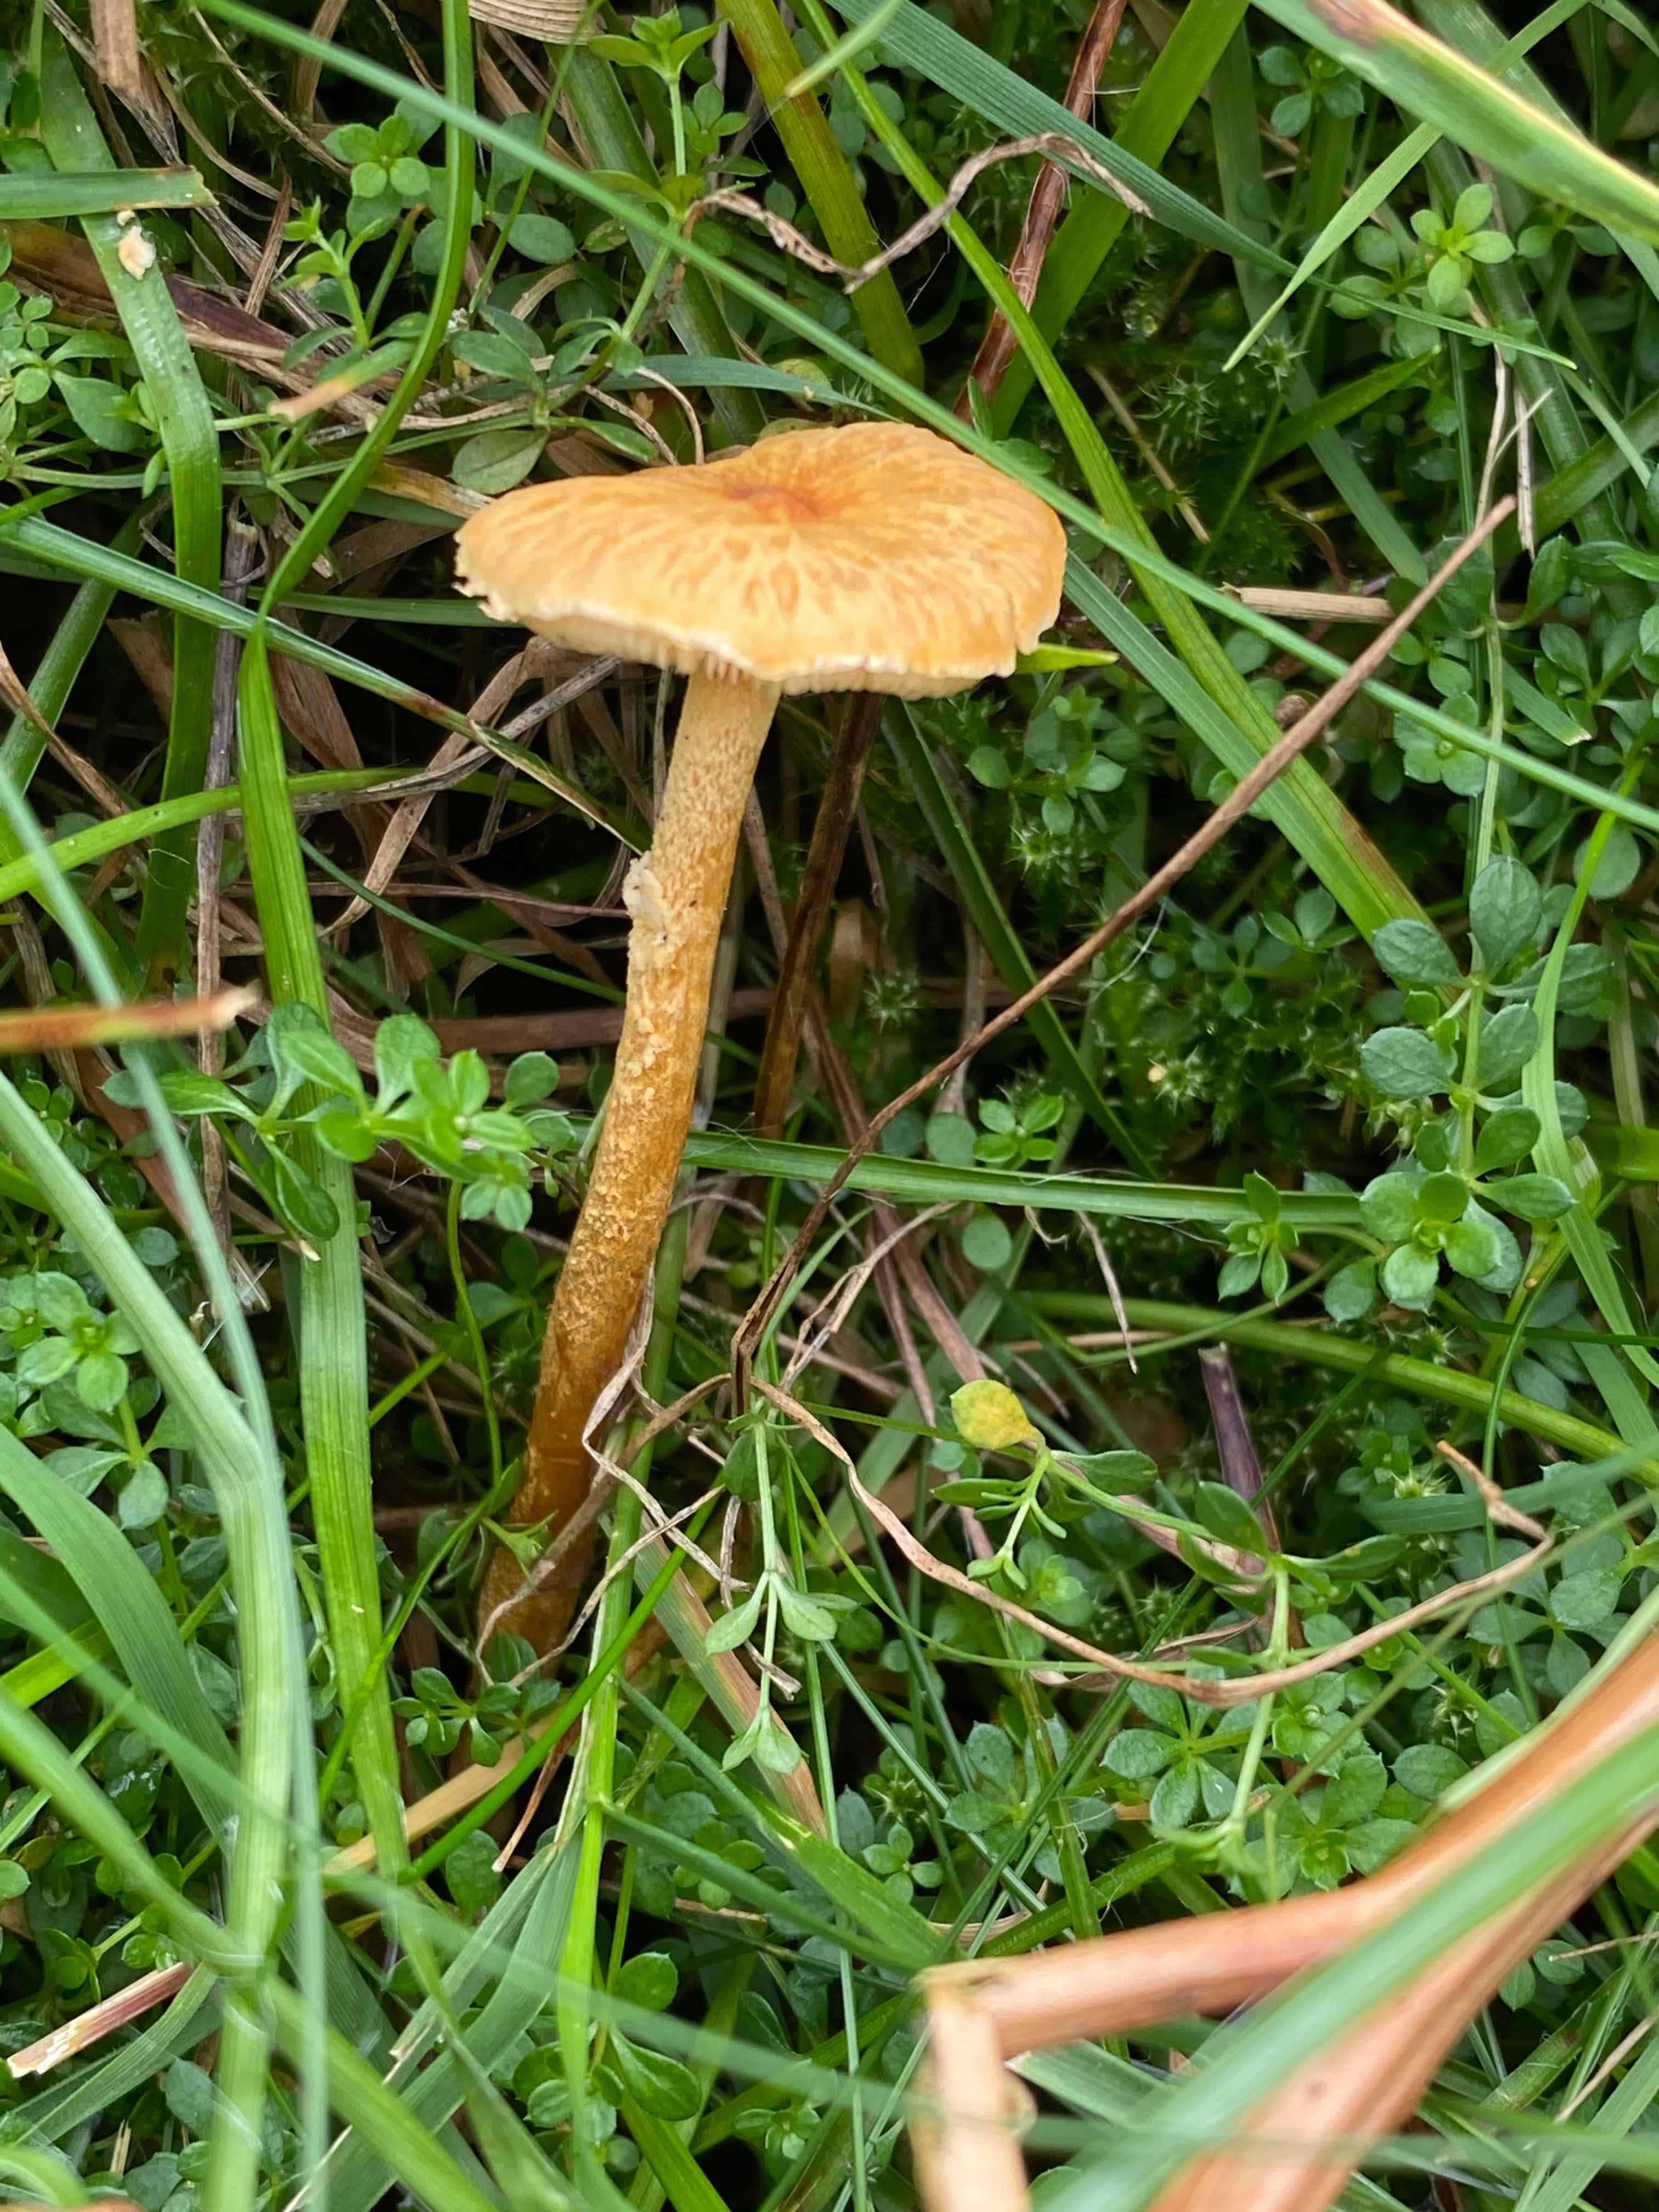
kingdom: Fungi
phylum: Basidiomycota
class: Agaricomycetes
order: Agaricales
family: Tricholomataceae
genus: Cystoderma
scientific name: Cystoderma amianthinum
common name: okkergul grynhat
